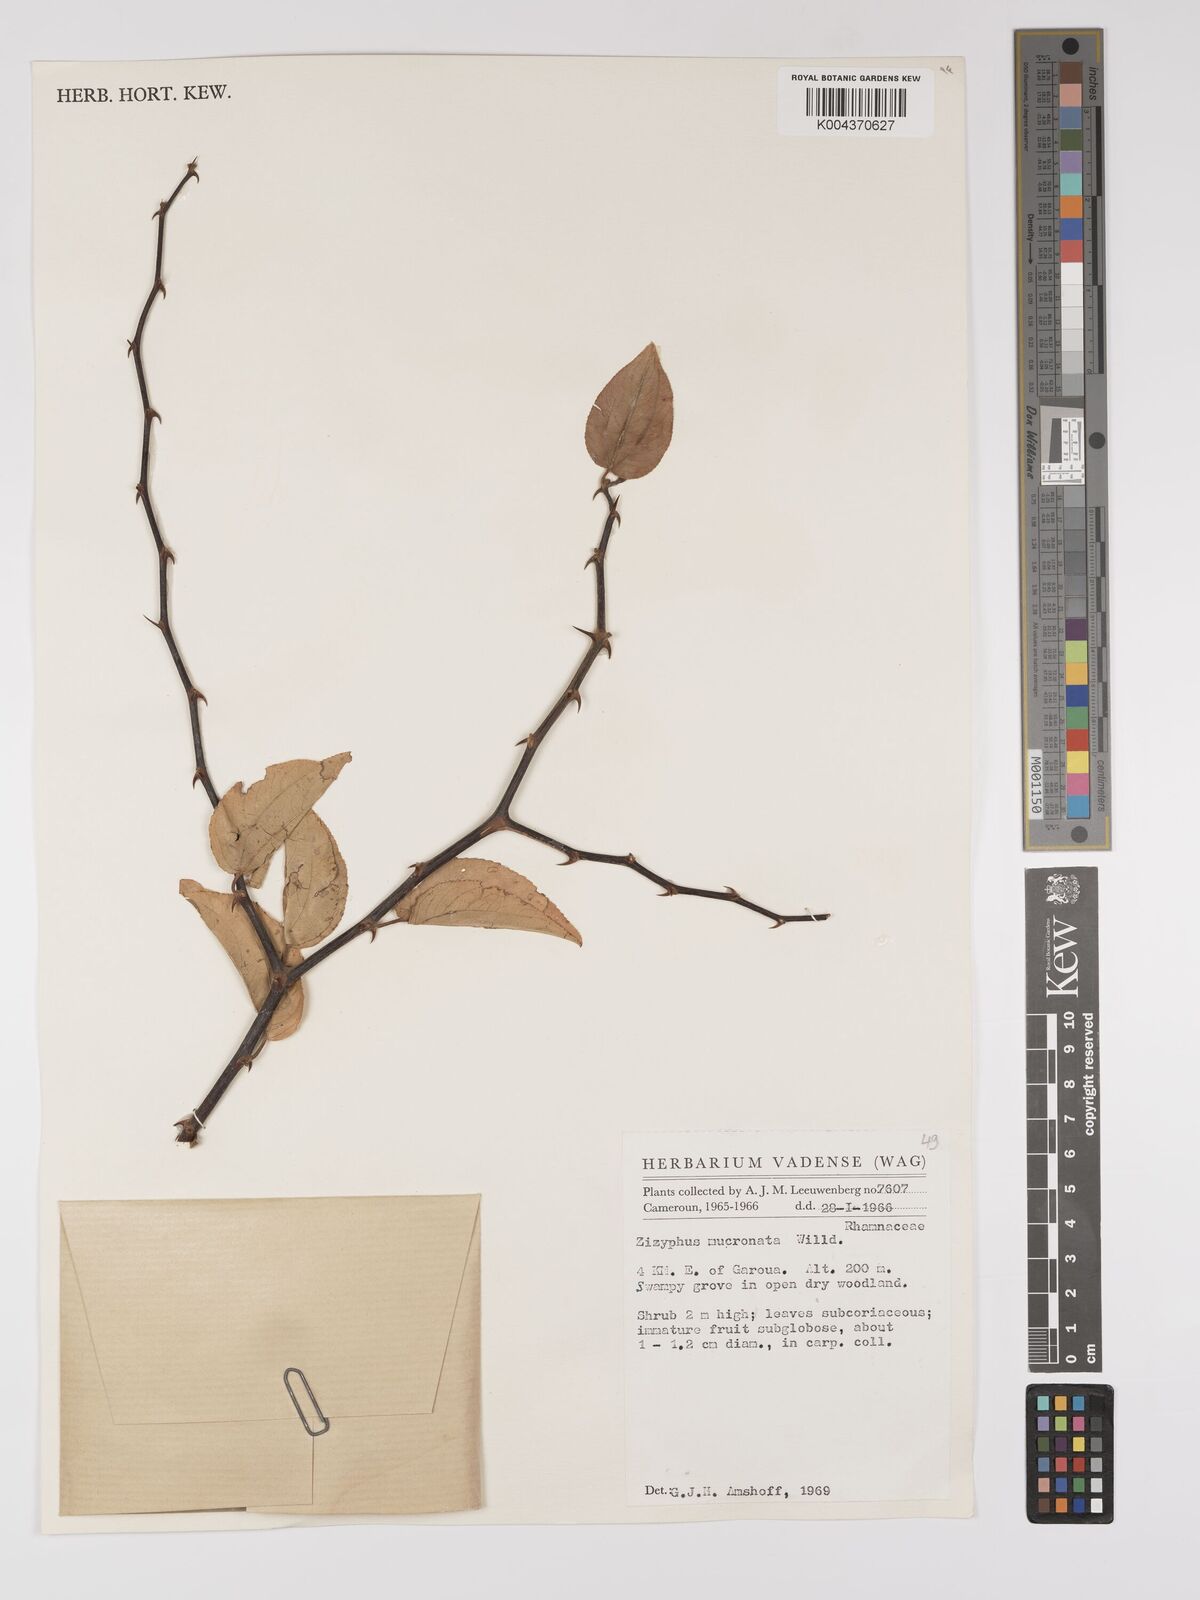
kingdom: Plantae
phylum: Tracheophyta
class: Magnoliopsida
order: Rosales
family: Rhamnaceae
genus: Ziziphus
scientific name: Ziziphus mucronata
